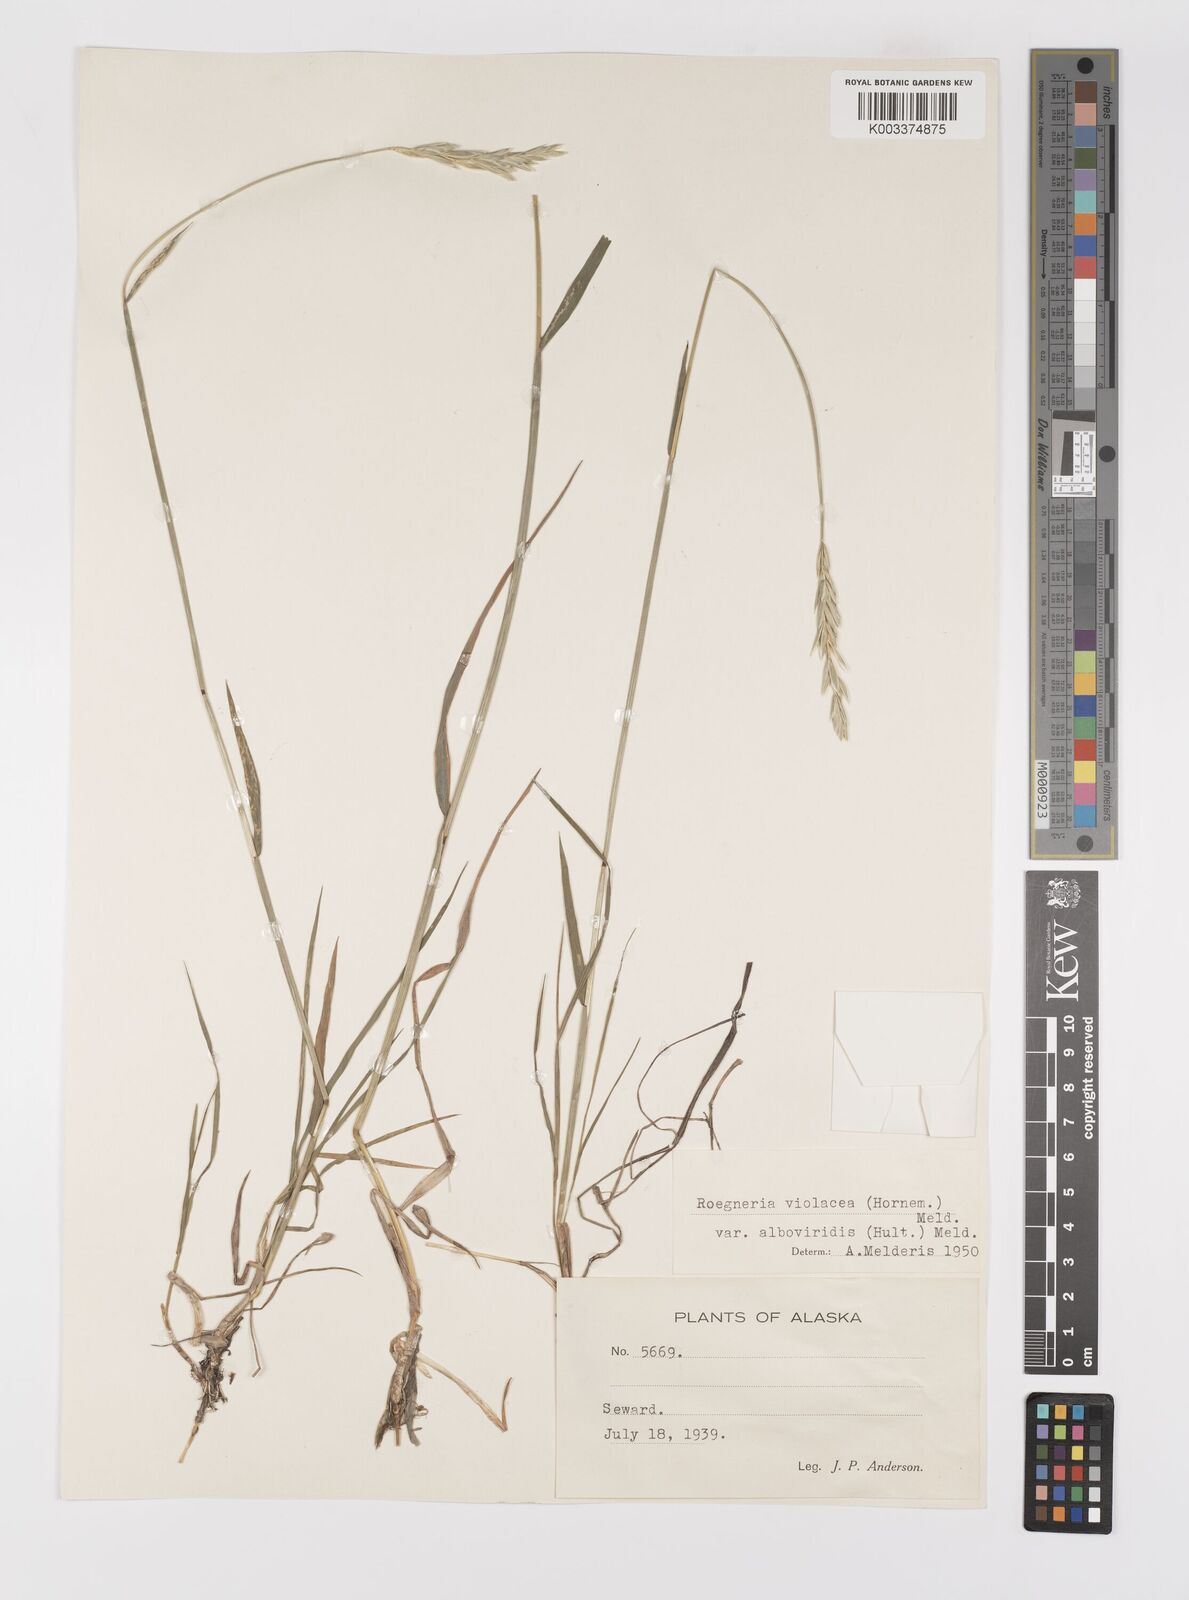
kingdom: Plantae
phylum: Tracheophyta
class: Liliopsida
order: Poales
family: Poaceae
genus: Elymus
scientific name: Elymus violaceus
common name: Arctic wheatgrass
